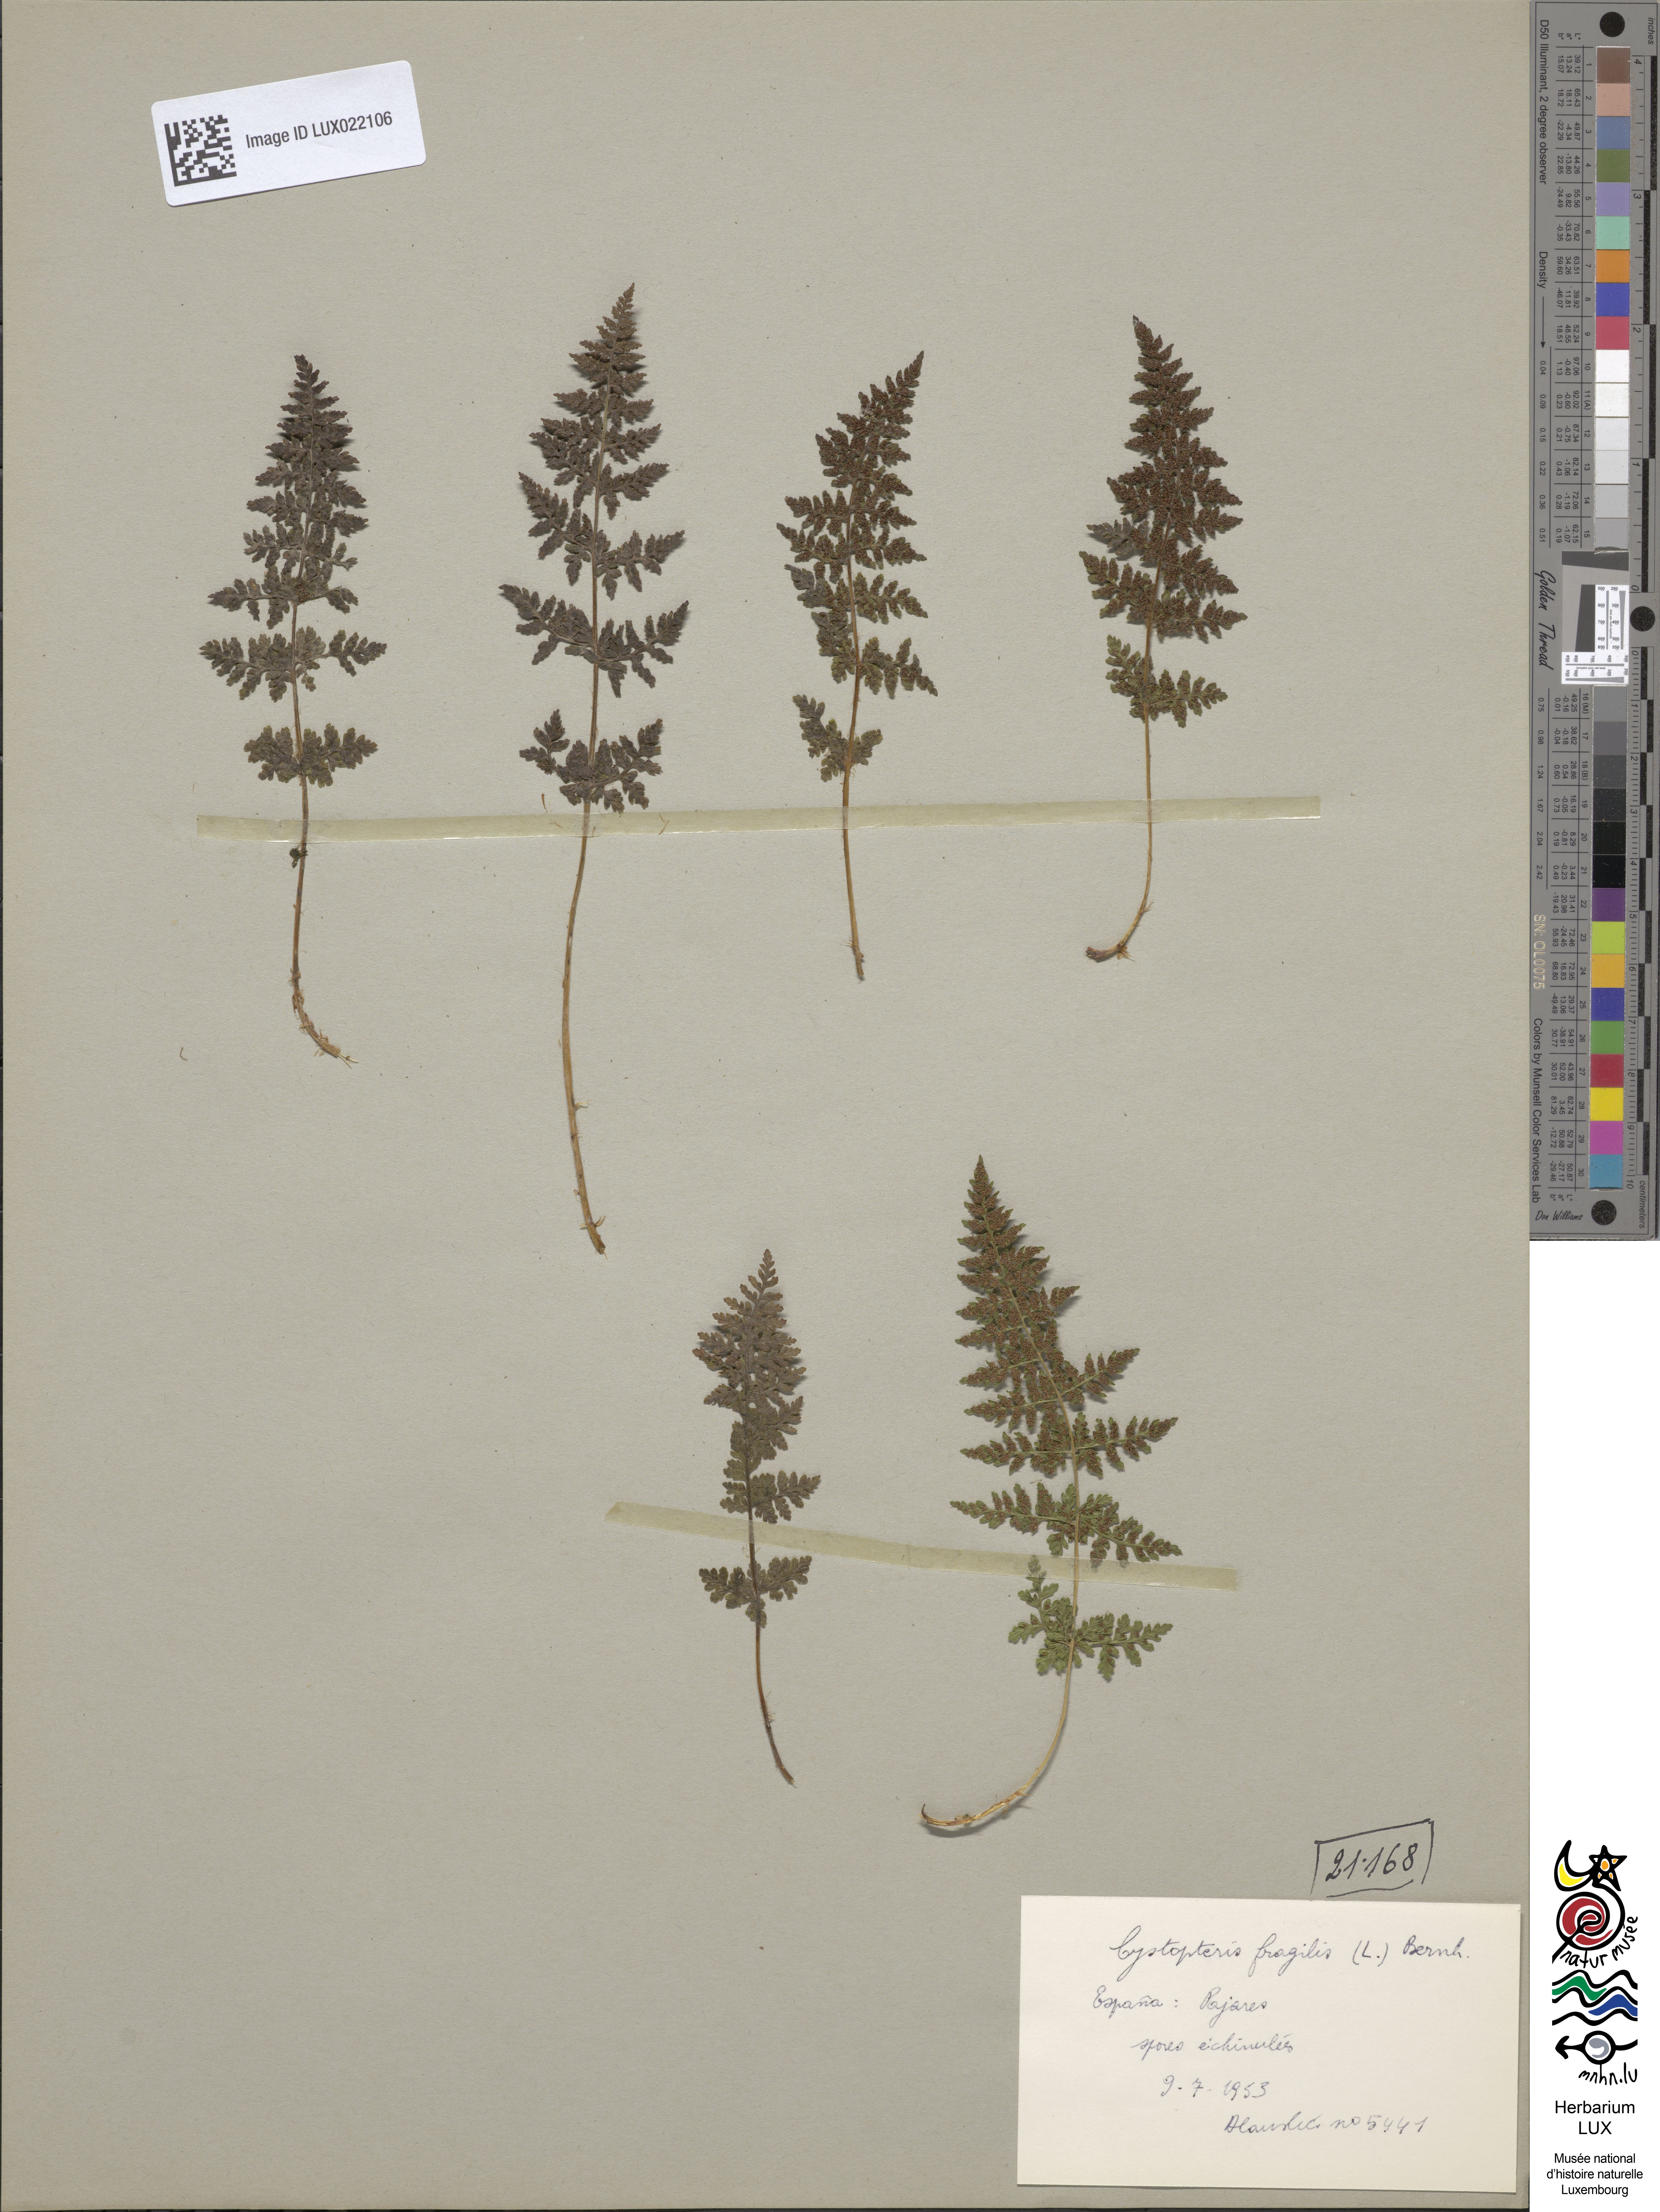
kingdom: Plantae
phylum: Tracheophyta
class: Polypodiopsida
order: Polypodiales
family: Cystopteridaceae
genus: Cystopteris
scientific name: Cystopteris fragilis
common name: Brittle bladder fern
